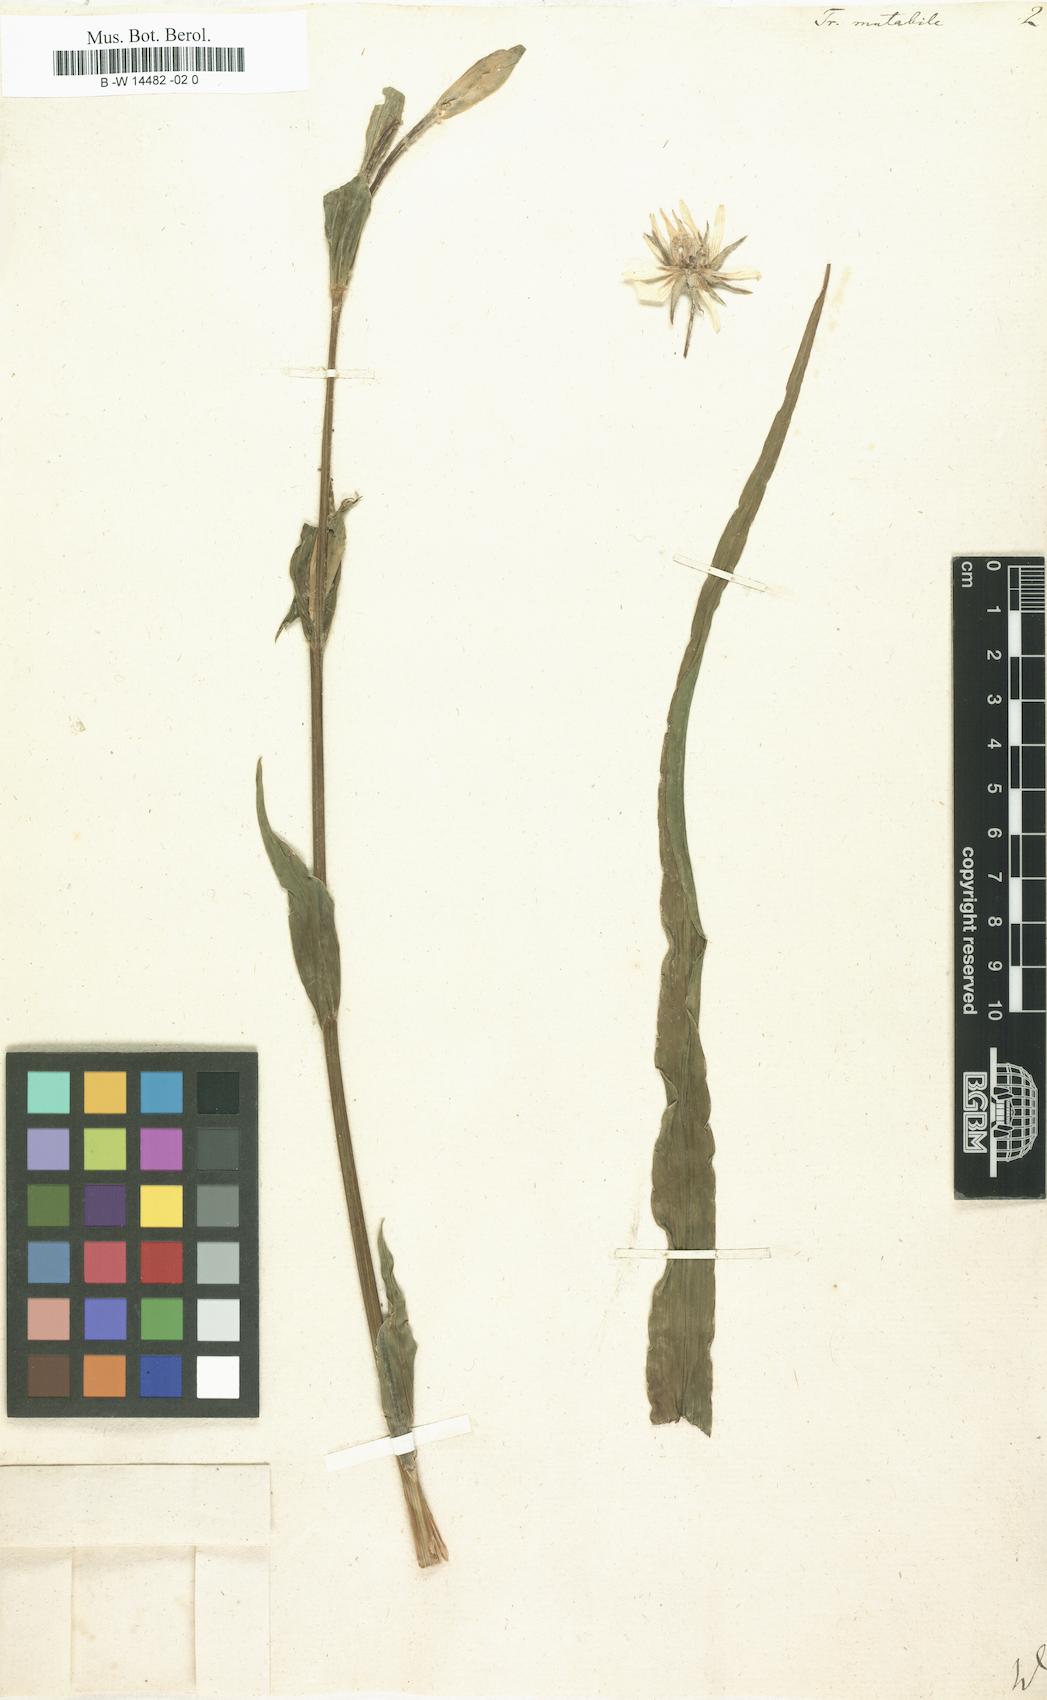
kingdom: Plantae
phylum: Tracheophyta
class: Magnoliopsida
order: Asterales
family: Asteraceae
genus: Tragopogon
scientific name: Tragopogon mutabilis
